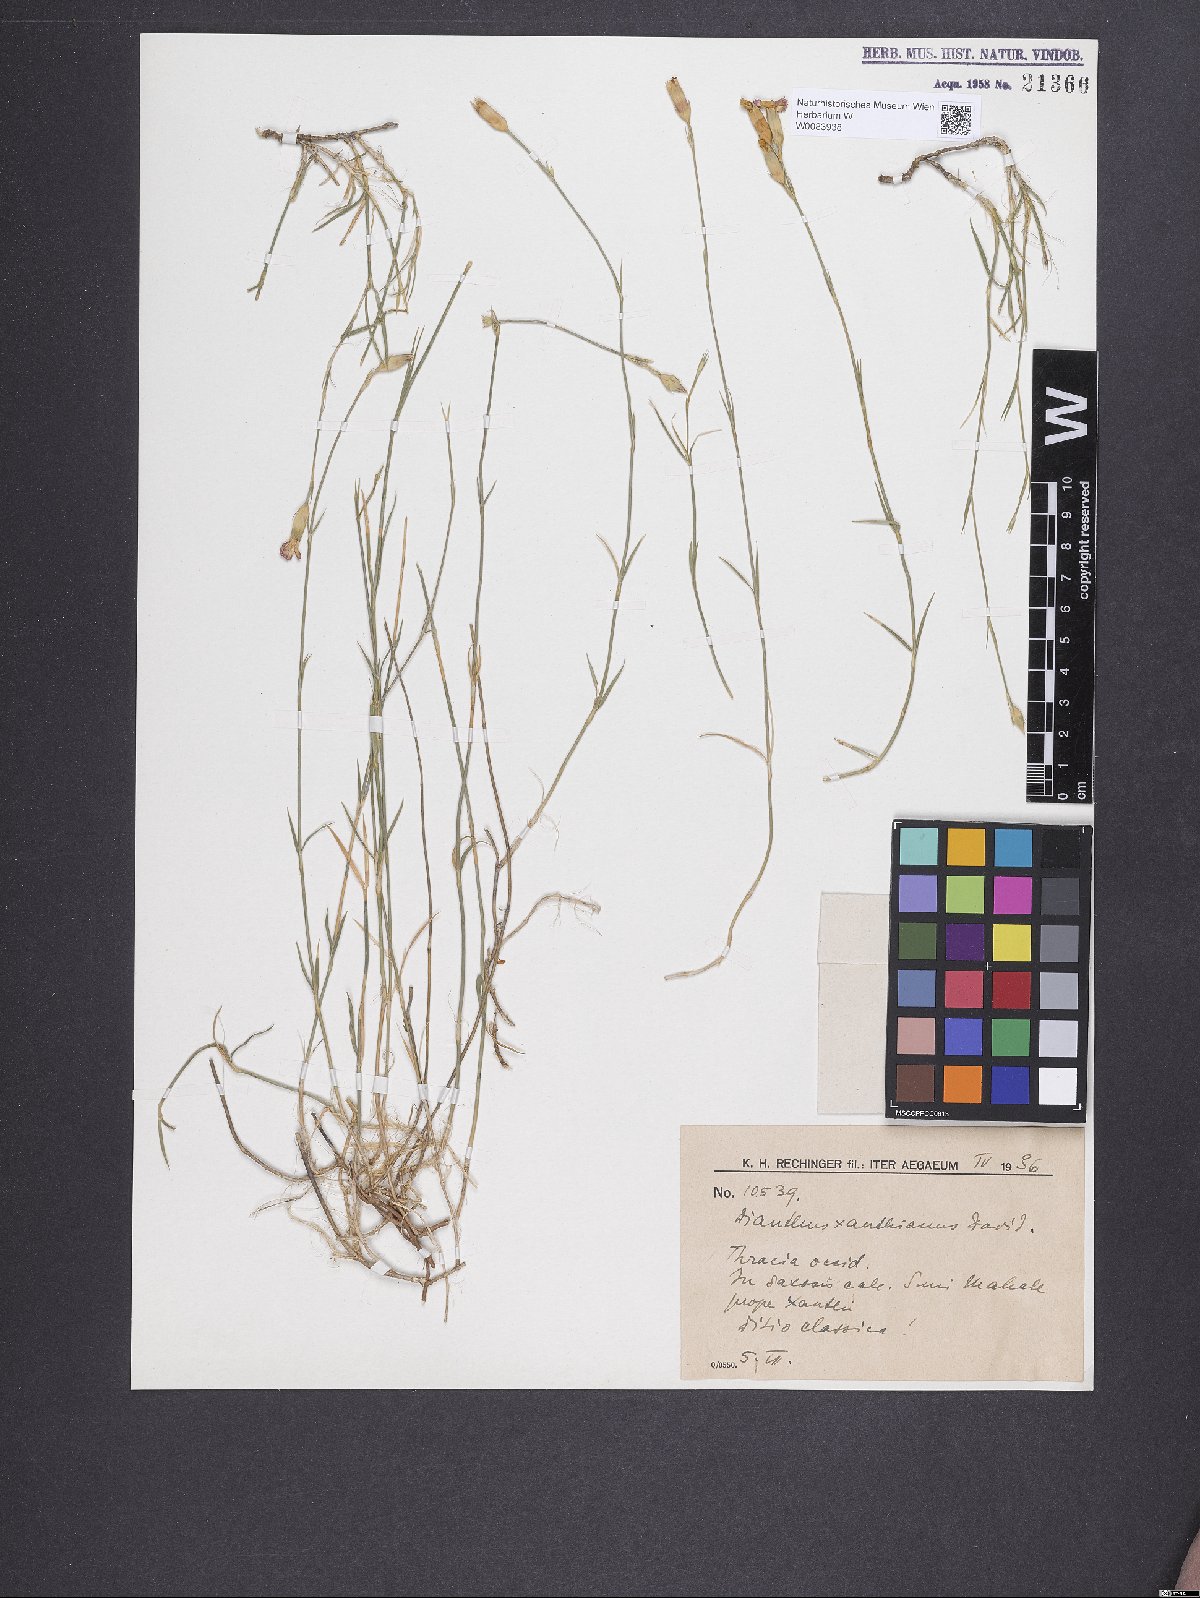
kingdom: Plantae
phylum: Tracheophyta
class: Magnoliopsida
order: Caryophyllales
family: Caryophyllaceae
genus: Dianthus
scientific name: Dianthus gracilis
